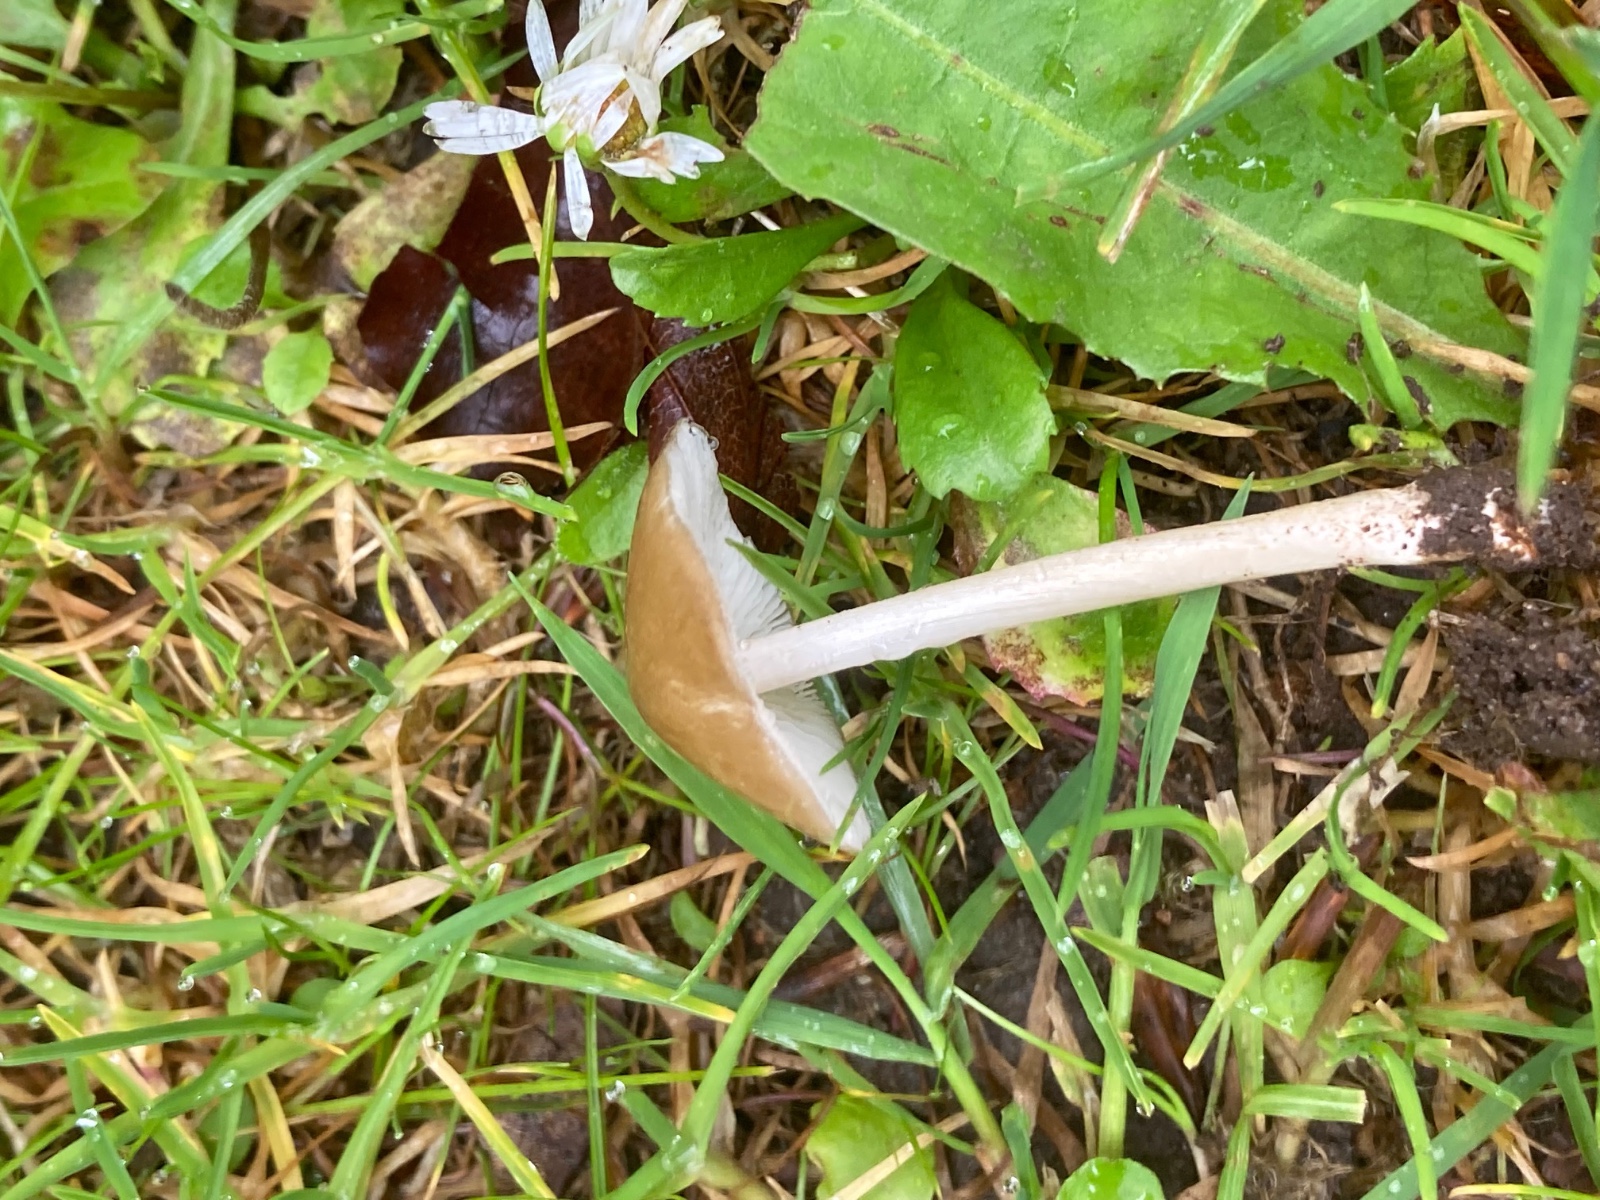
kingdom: Fungi
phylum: Basidiomycota
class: Agaricomycetes
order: Agaricales
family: Porotheleaceae
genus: Hydropodia
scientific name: Hydropodia subalpina
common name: vår-fnugfod
